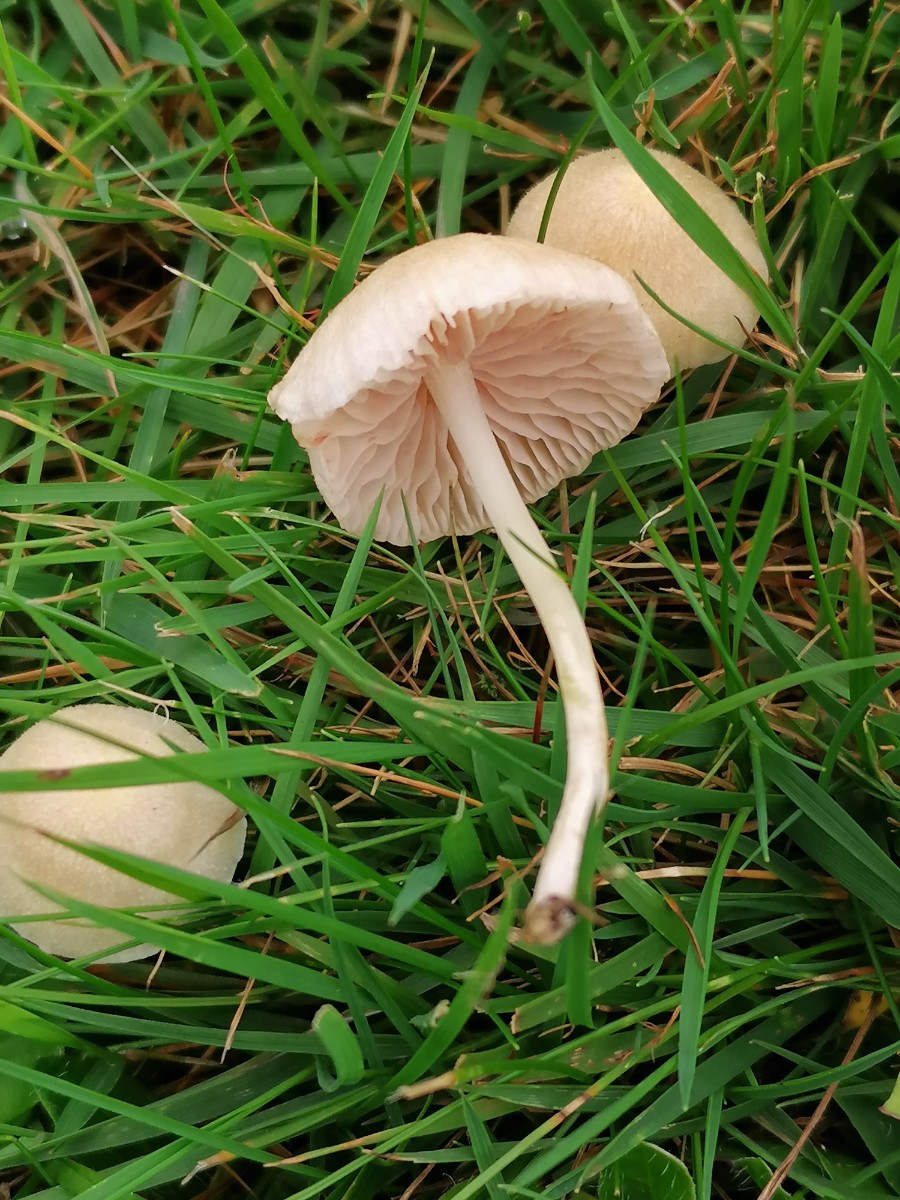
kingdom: Fungi
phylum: Basidiomycota
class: Agaricomycetes
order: Agaricales
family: Entolomataceae
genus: Entoloma
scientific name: Entoloma sericellum
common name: silkehvid rødblad
